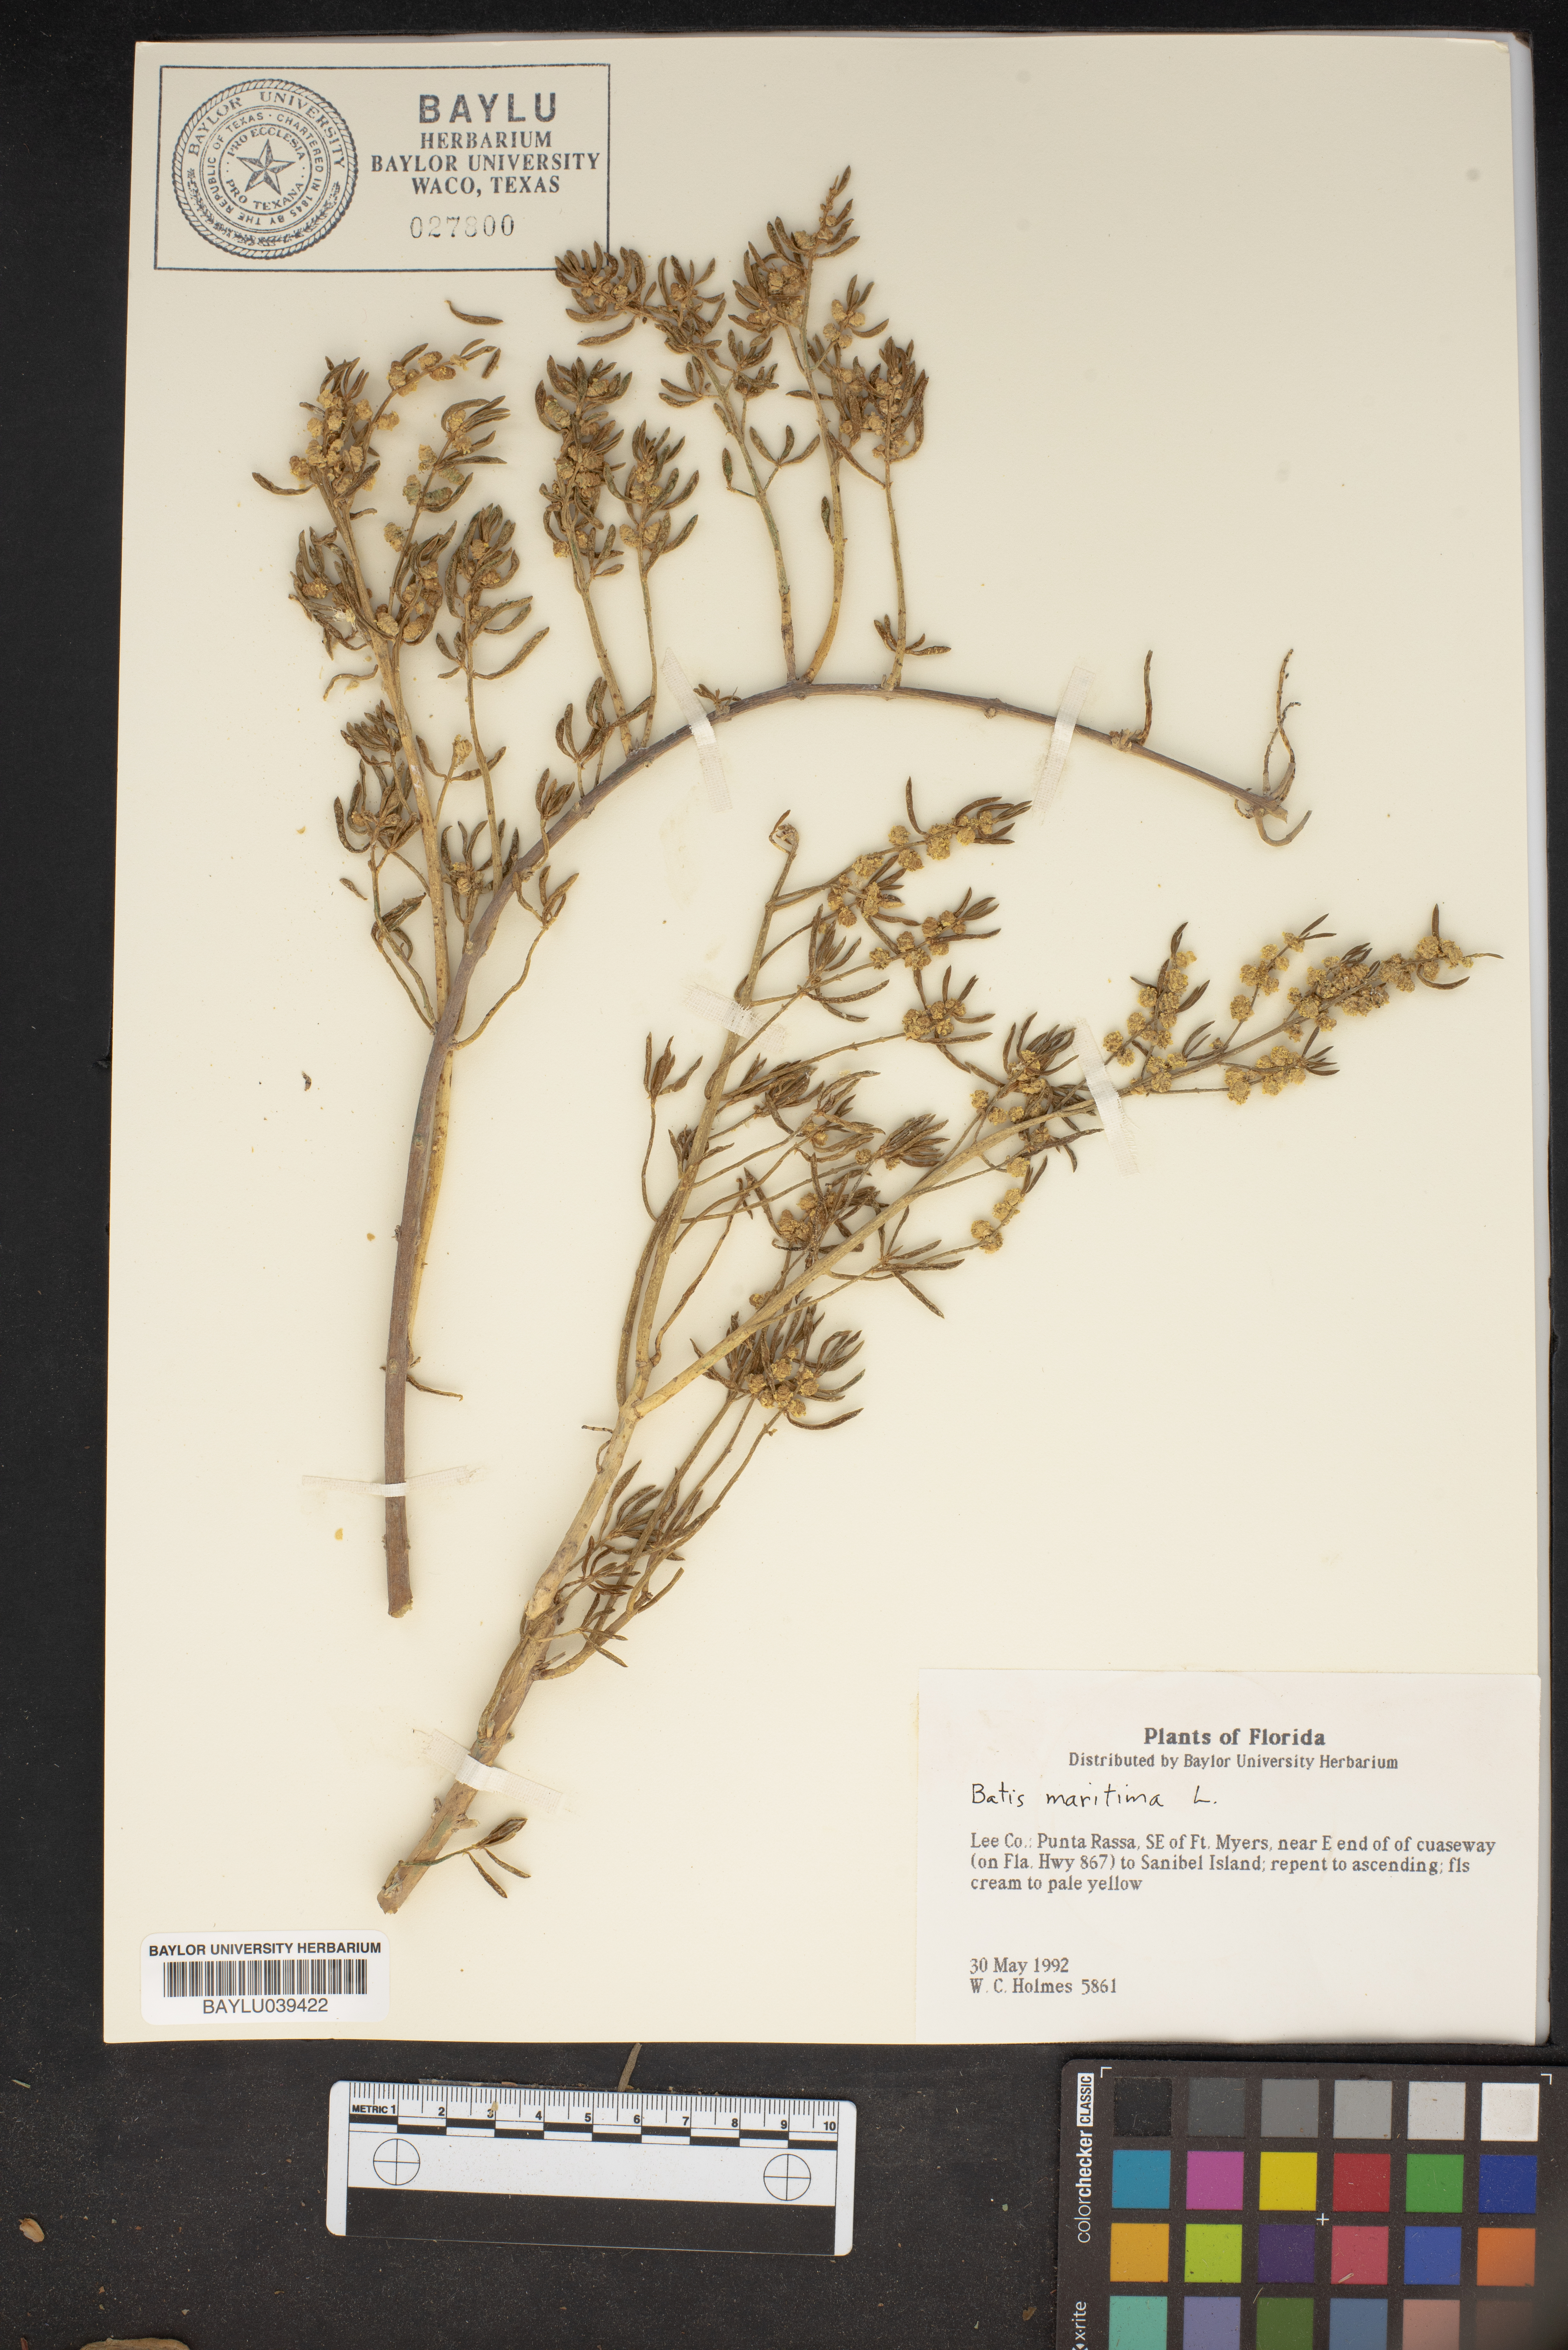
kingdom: Plantae
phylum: Tracheophyta
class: Magnoliopsida
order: Brassicales
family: Bataceae
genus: Batis
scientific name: Batis maritima
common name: Turtleweed
